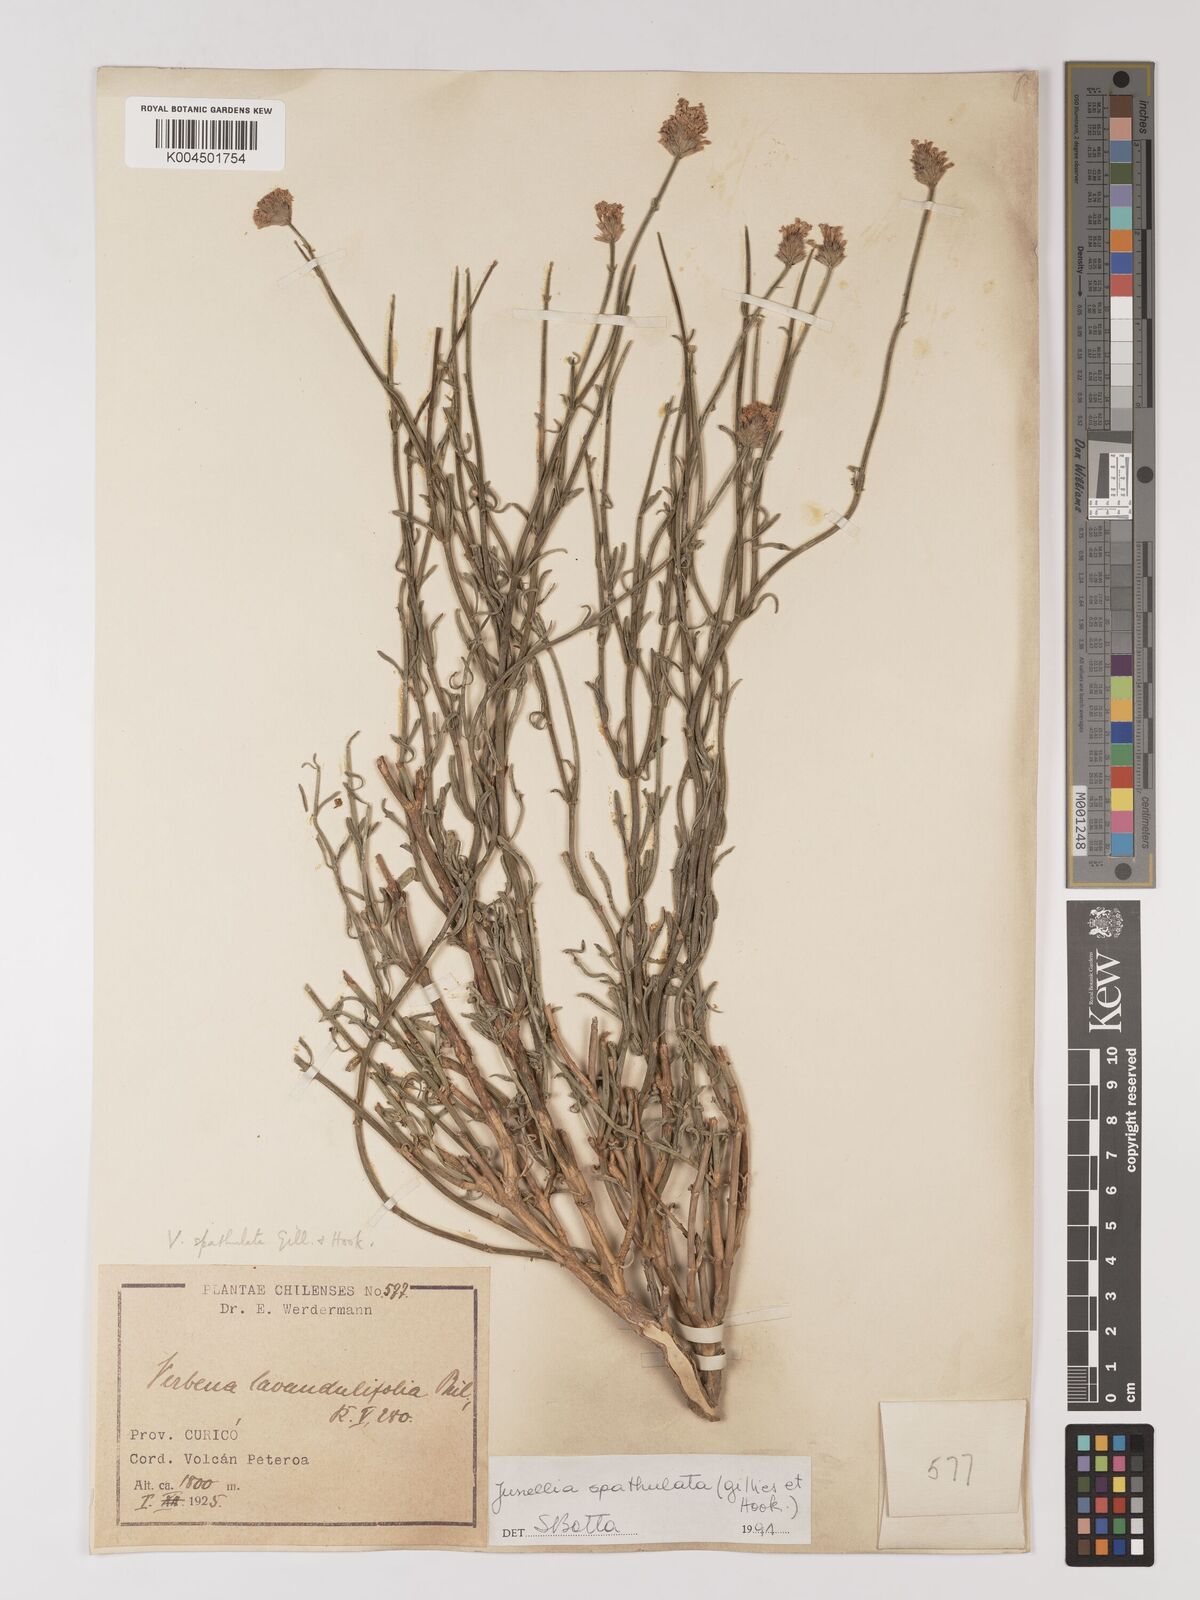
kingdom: Plantae
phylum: Tracheophyta
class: Magnoliopsida
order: Lamiales
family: Verbenaceae
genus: Junellia
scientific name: Junellia spathulata
